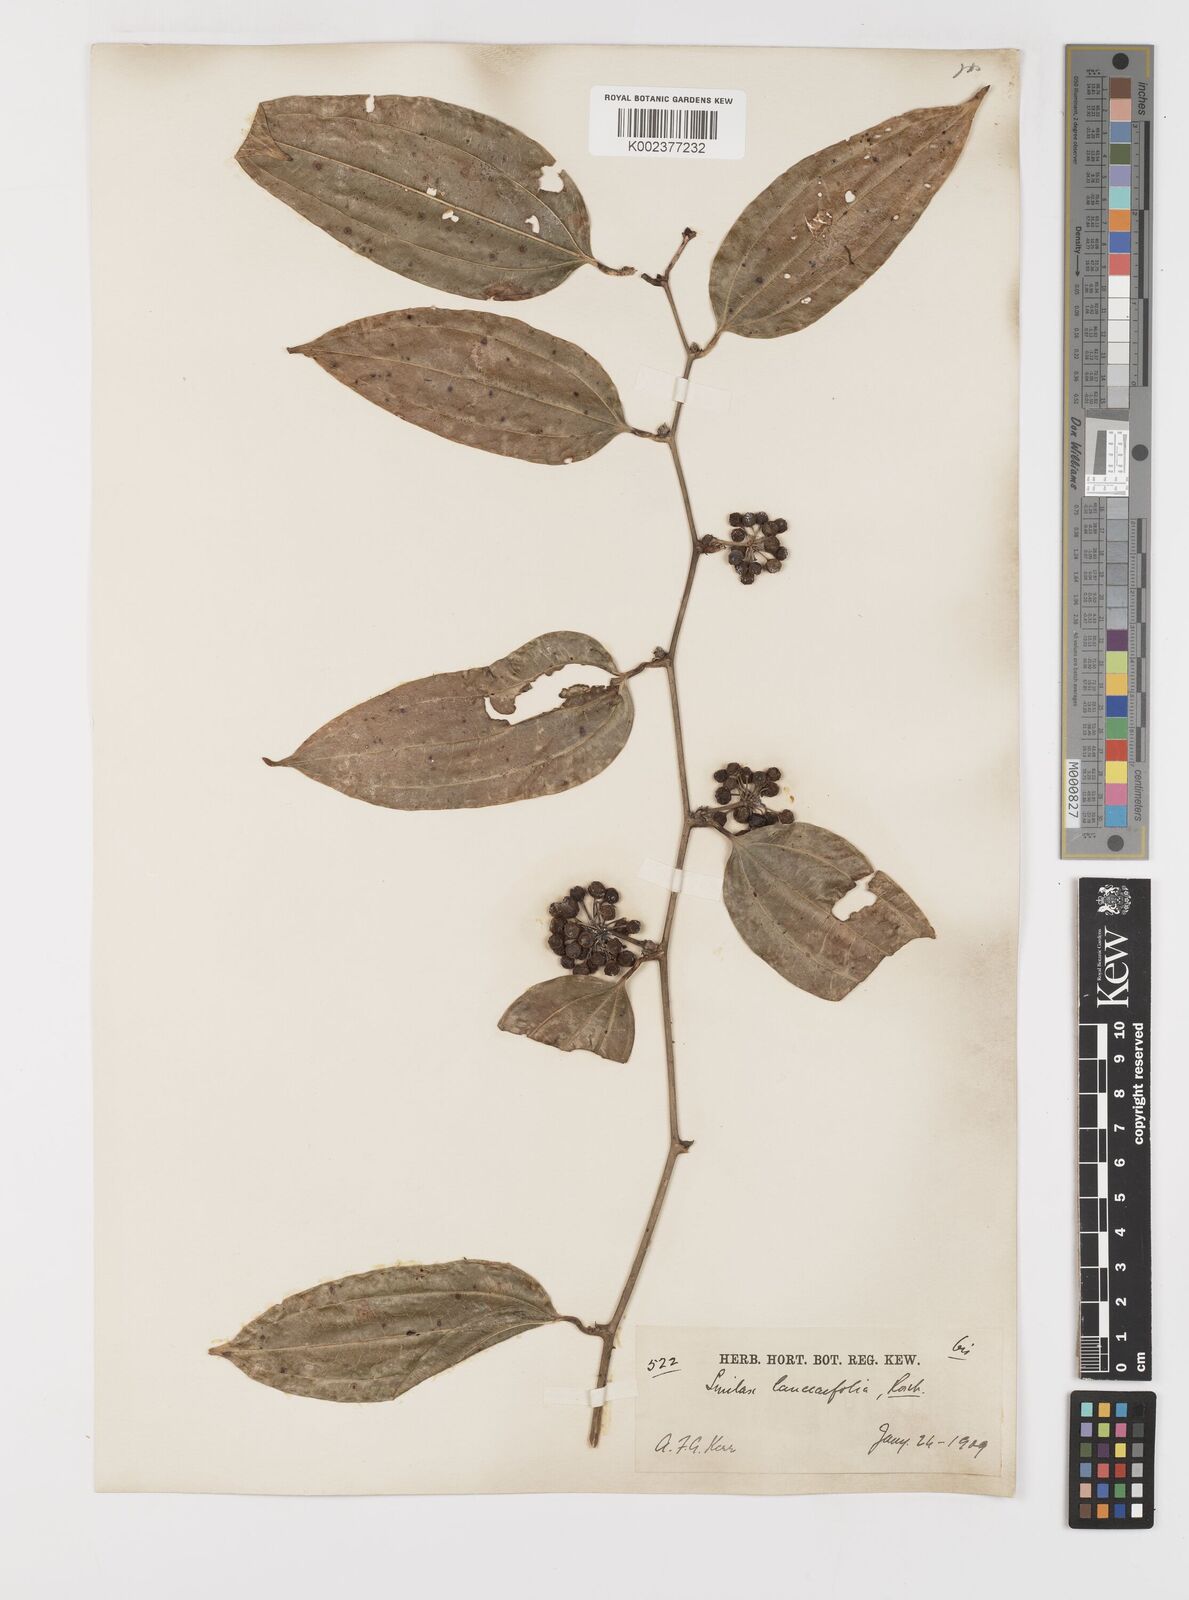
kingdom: Plantae
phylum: Tracheophyta
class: Liliopsida
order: Liliales
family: Smilacaceae
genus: Smilax
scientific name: Smilax lanceifolia
